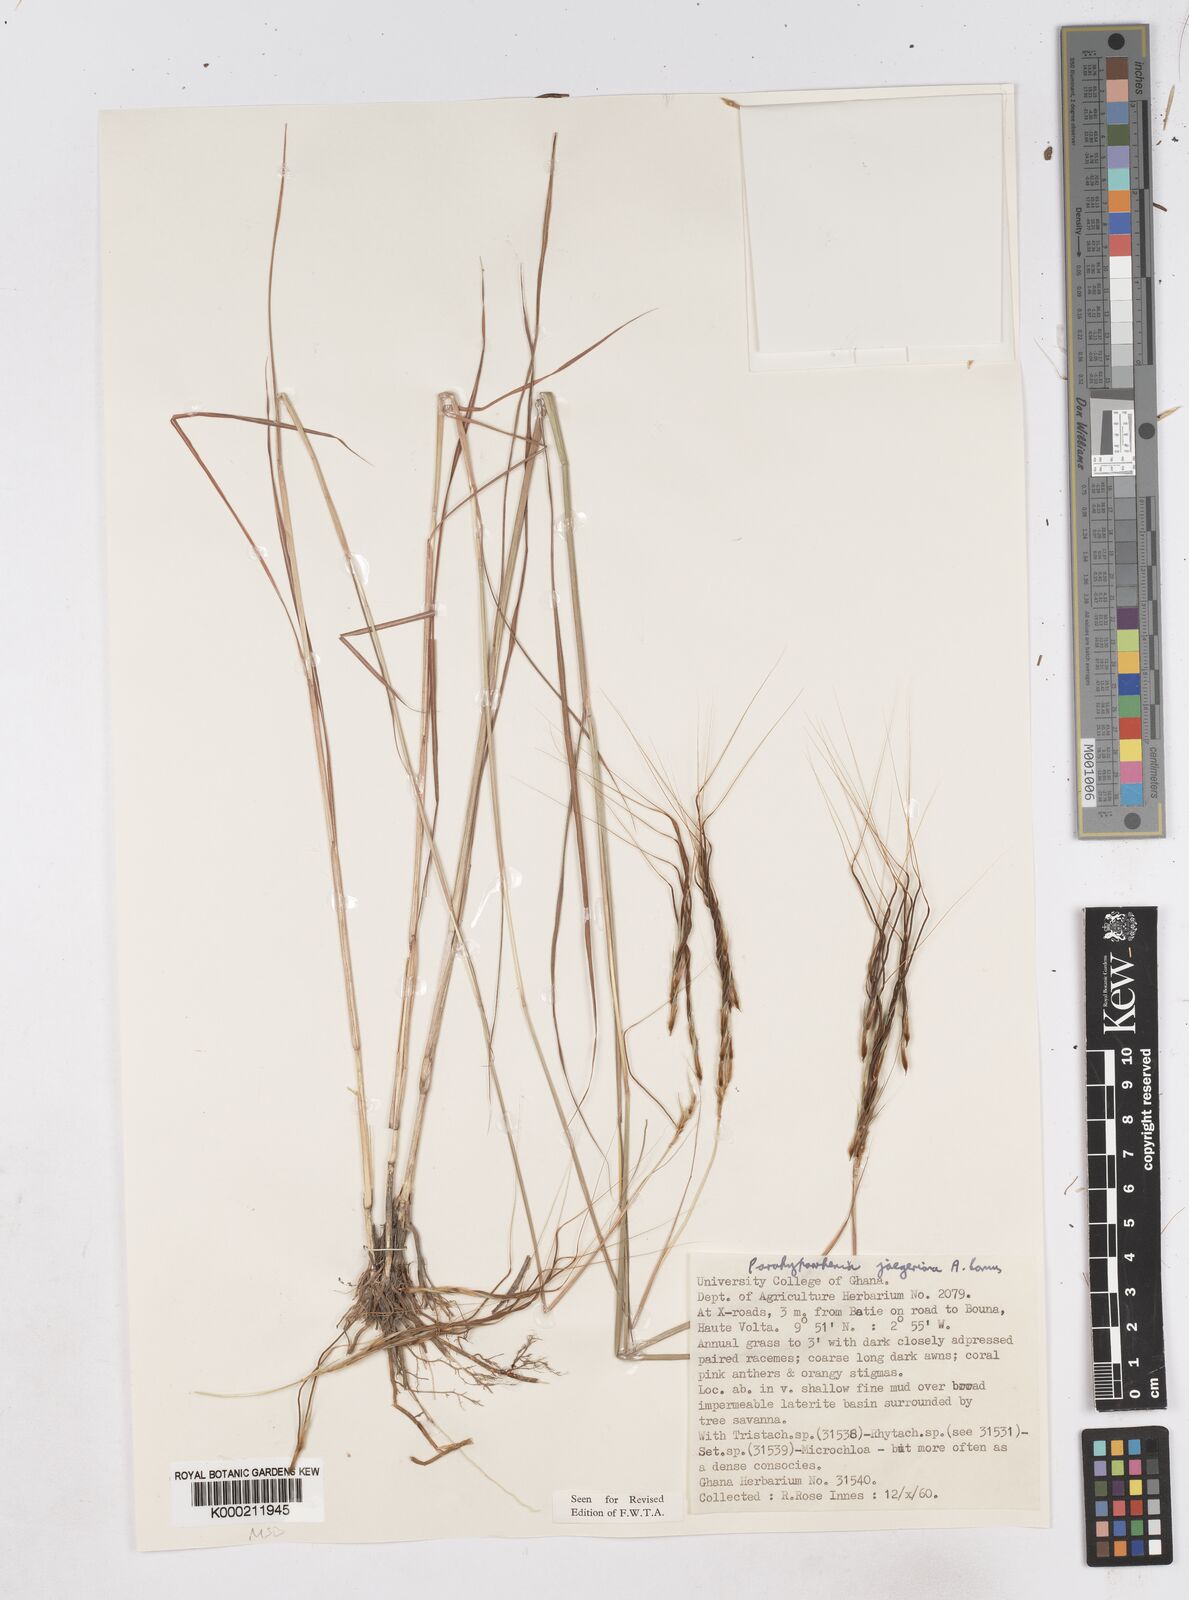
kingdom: Plantae
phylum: Tracheophyta
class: Liliopsida
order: Poales
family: Poaceae
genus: Parahyparrhenia
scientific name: Parahyparrhenia annua
